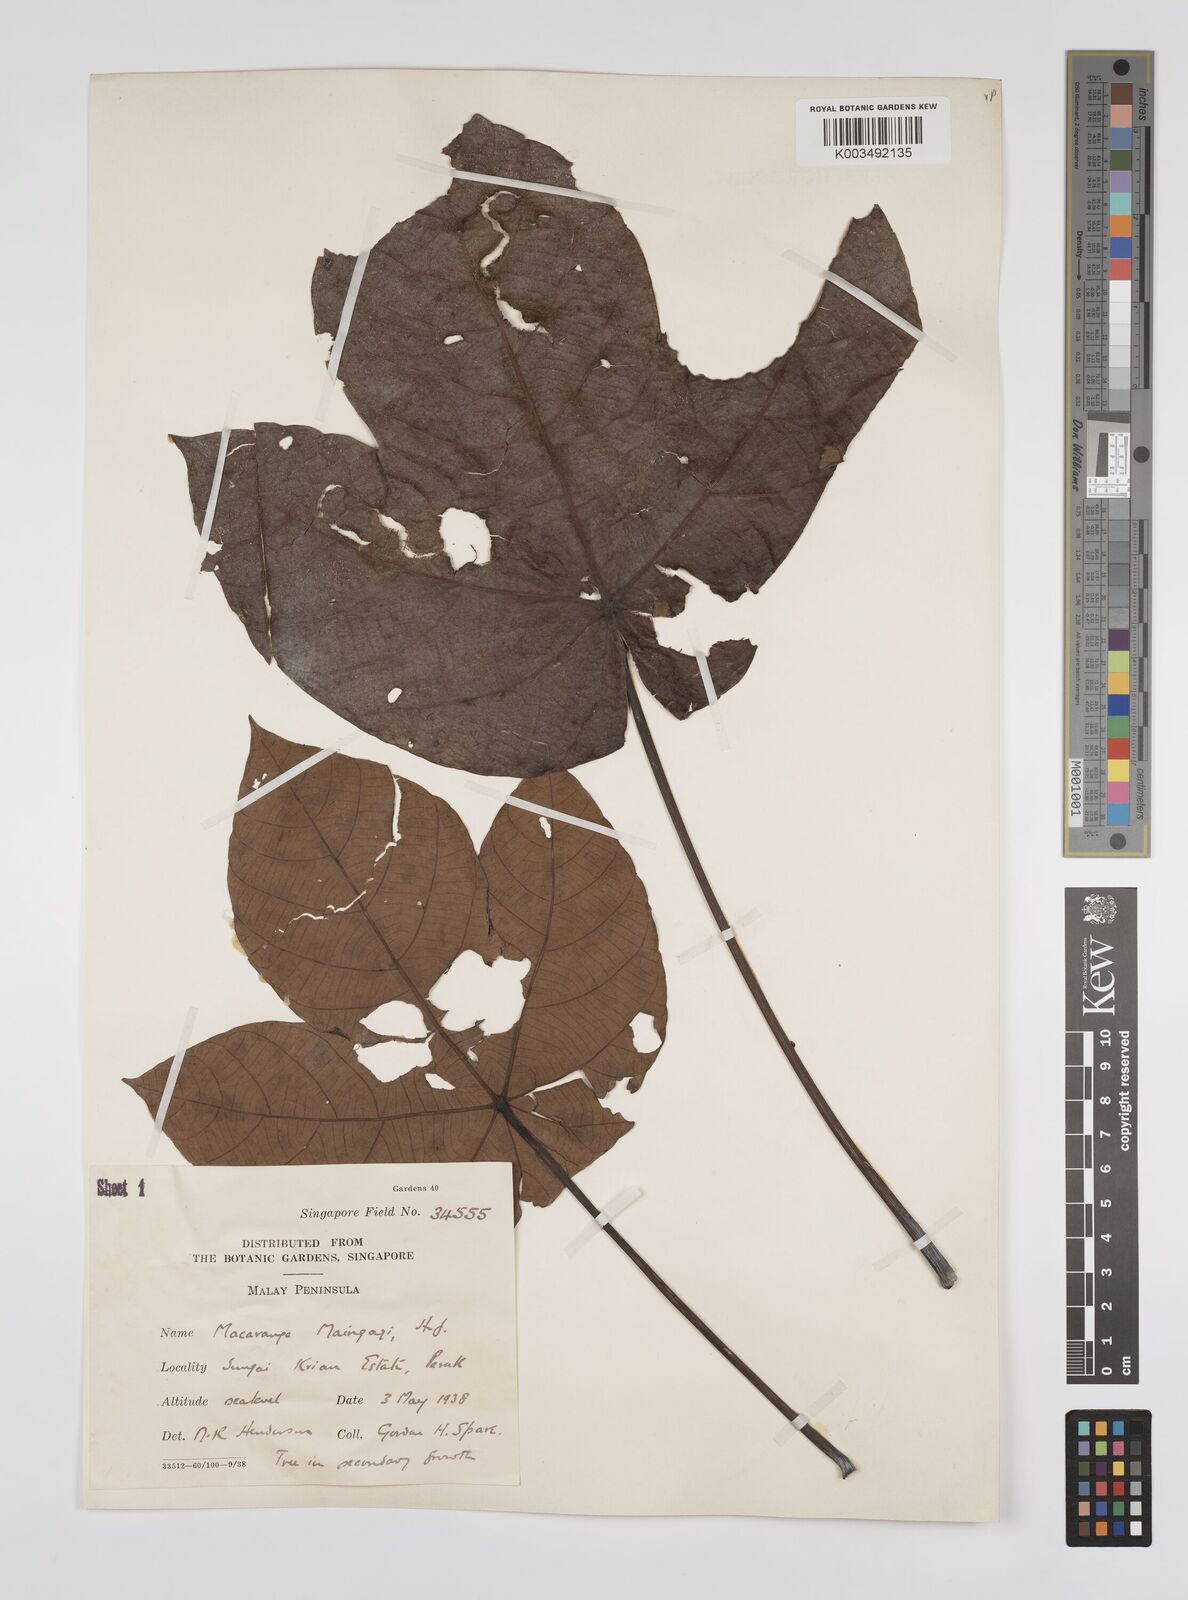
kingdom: Plantae
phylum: Tracheophyta
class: Magnoliopsida
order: Malpighiales
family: Euphorbiaceae
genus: Macaranga
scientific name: Macaranga pruinosa
